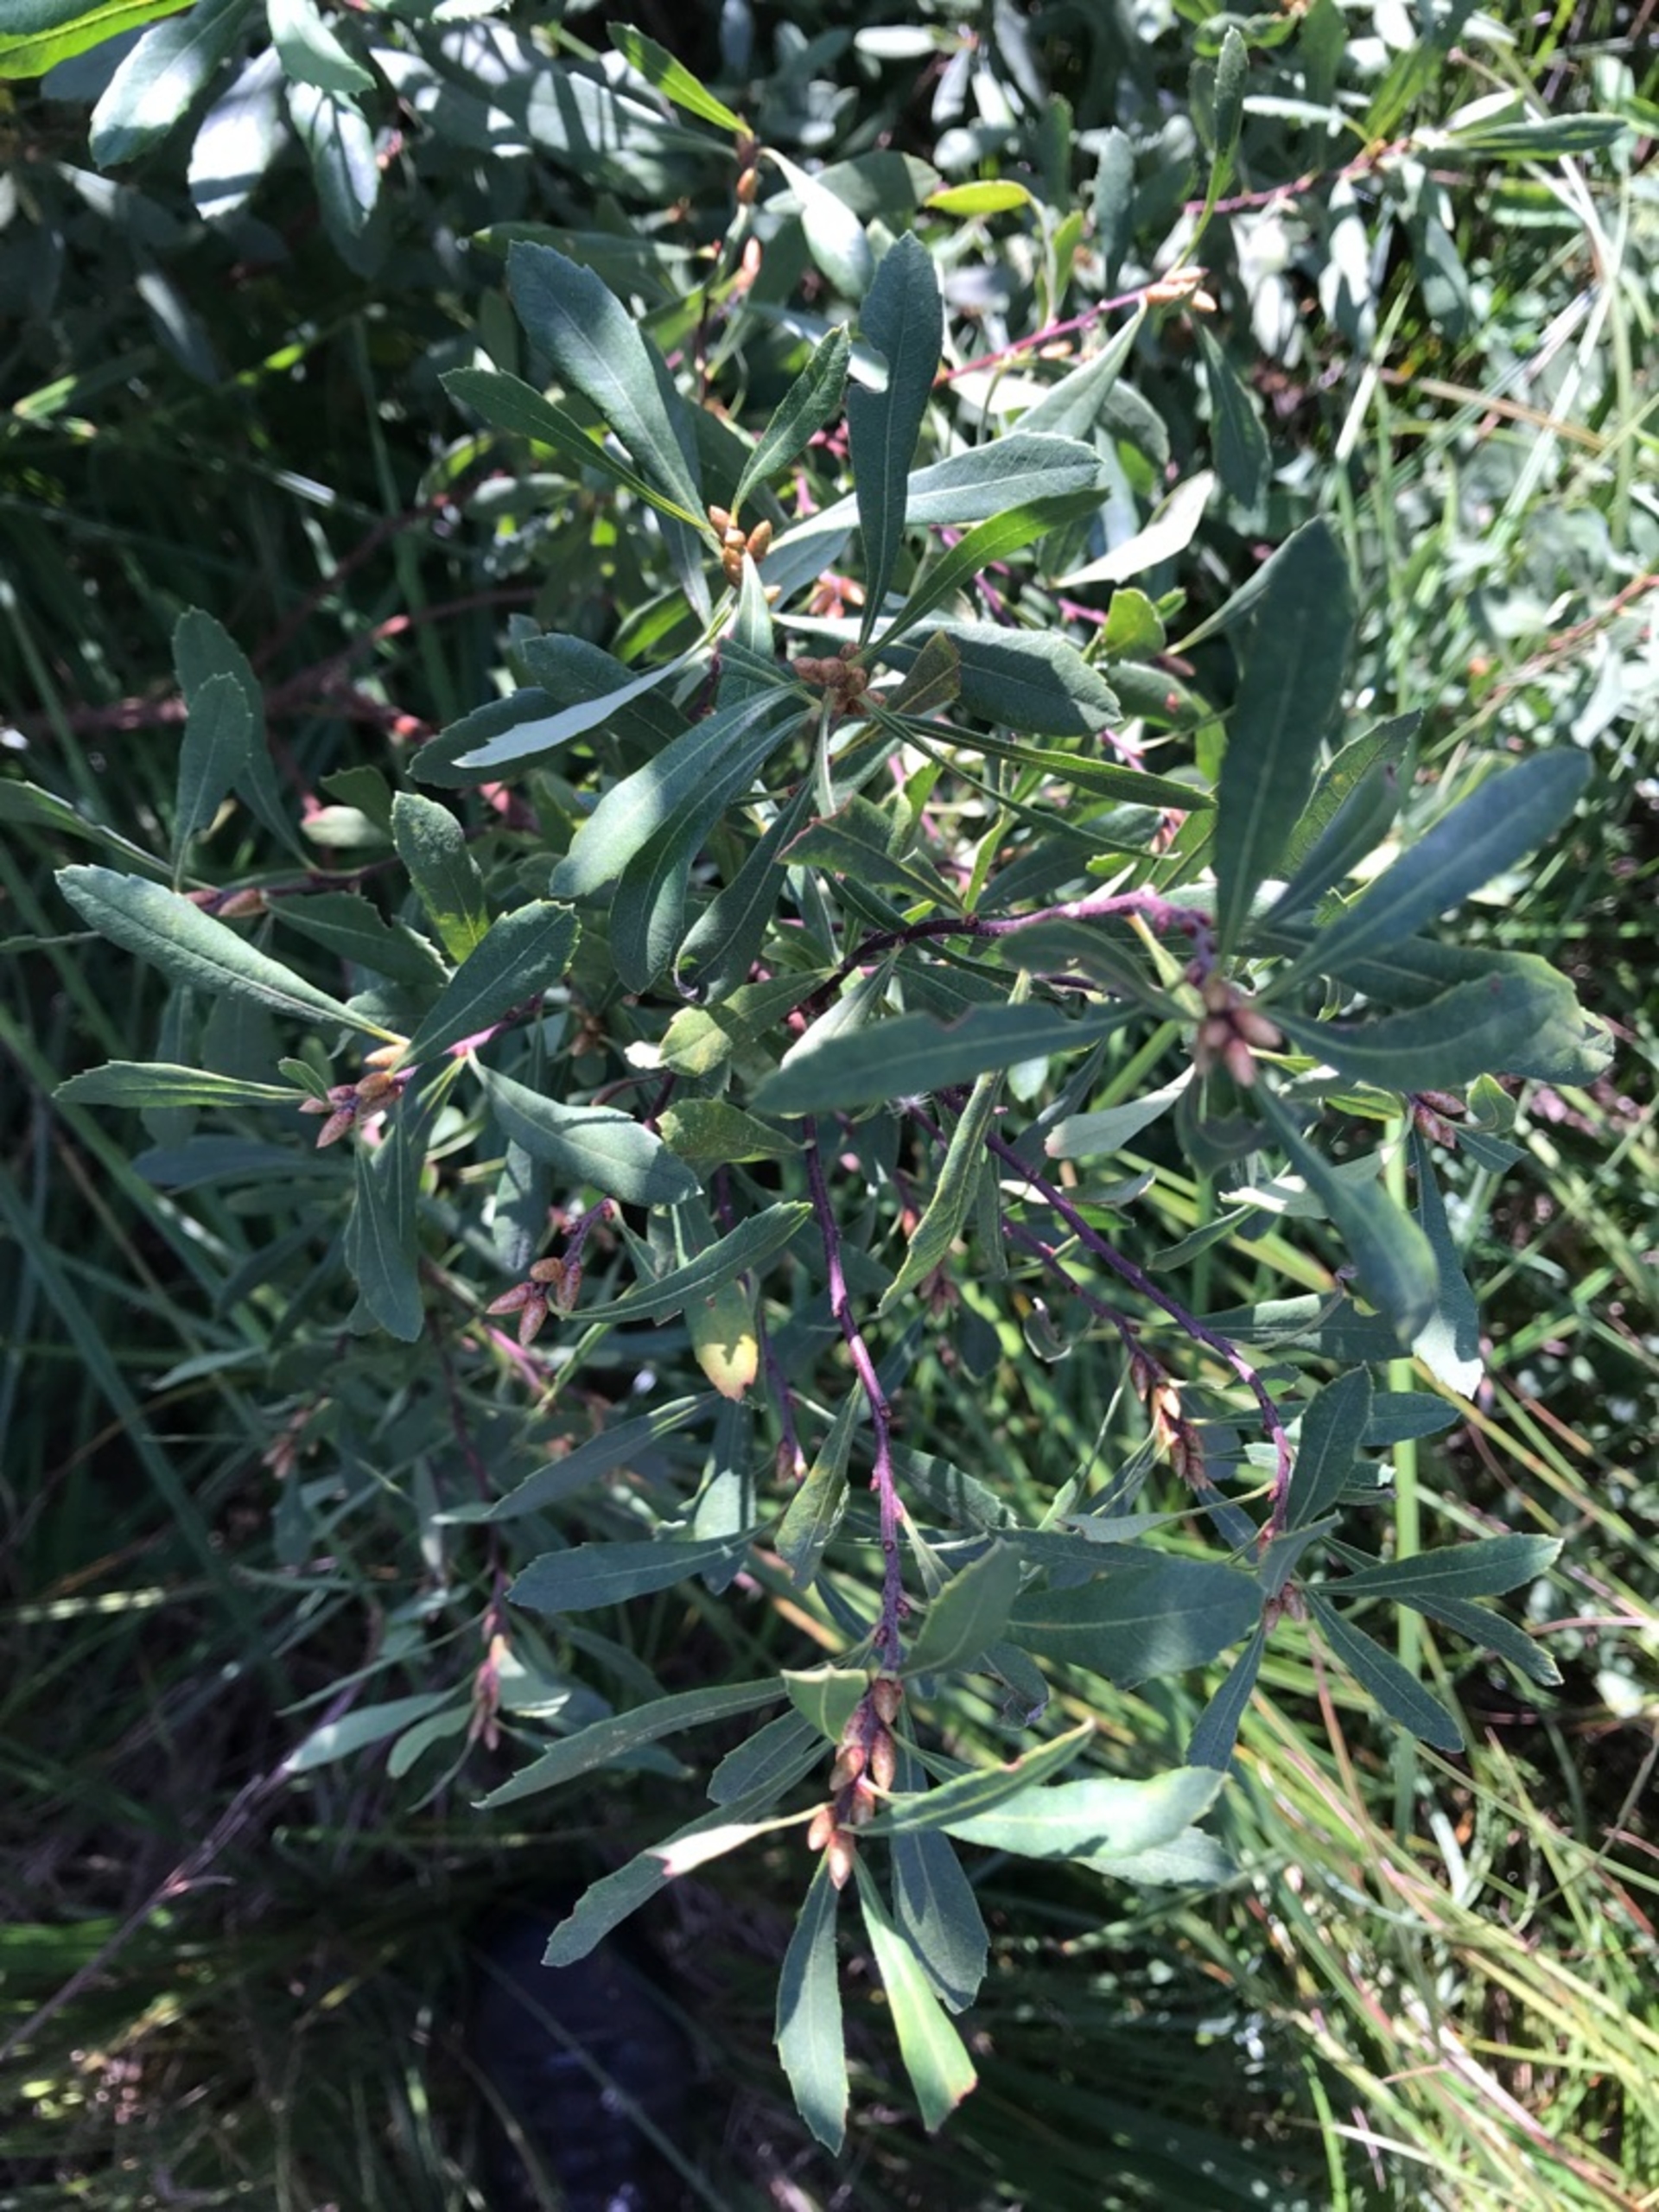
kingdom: Plantae
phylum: Tracheophyta
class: Magnoliopsida
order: Fagales
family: Myricaceae
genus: Myrica
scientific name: Myrica gale
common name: Pors
